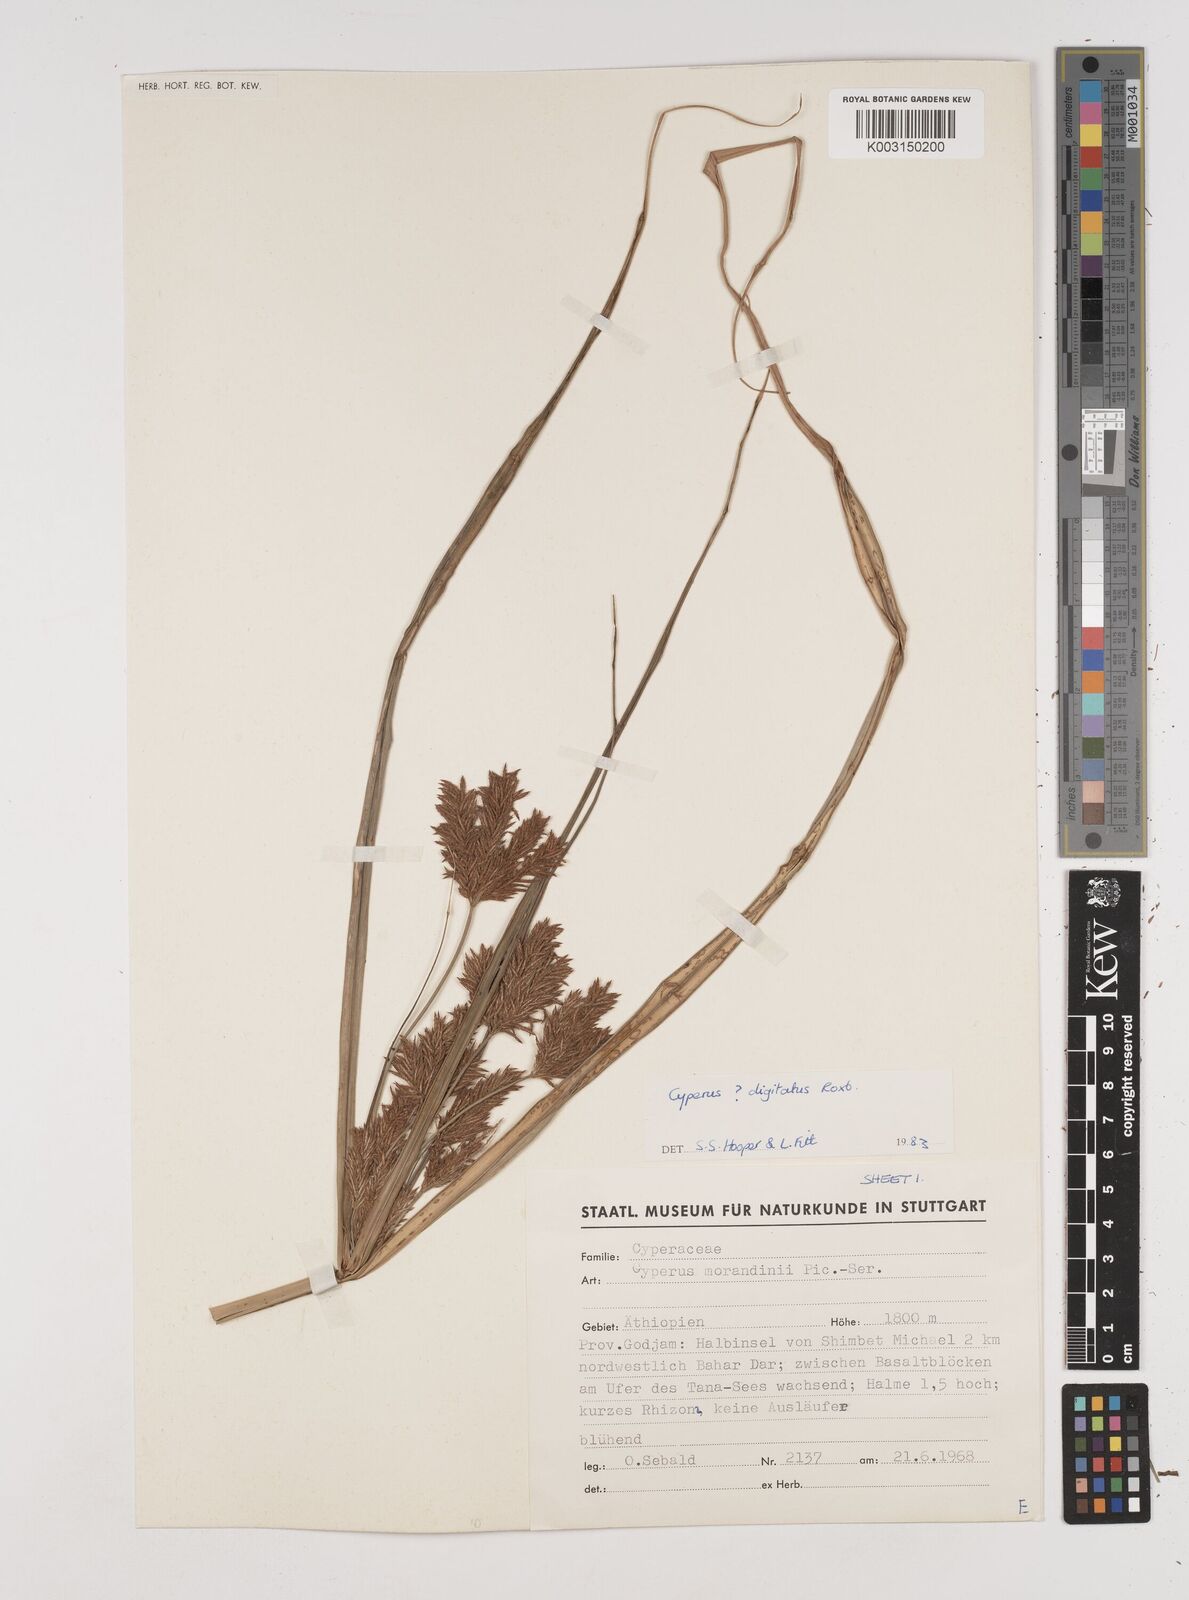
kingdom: Plantae
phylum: Tracheophyta
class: Liliopsida
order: Poales
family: Cyperaceae
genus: Cyperus
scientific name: Cyperus imbricatus
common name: Shingle flatsedge
